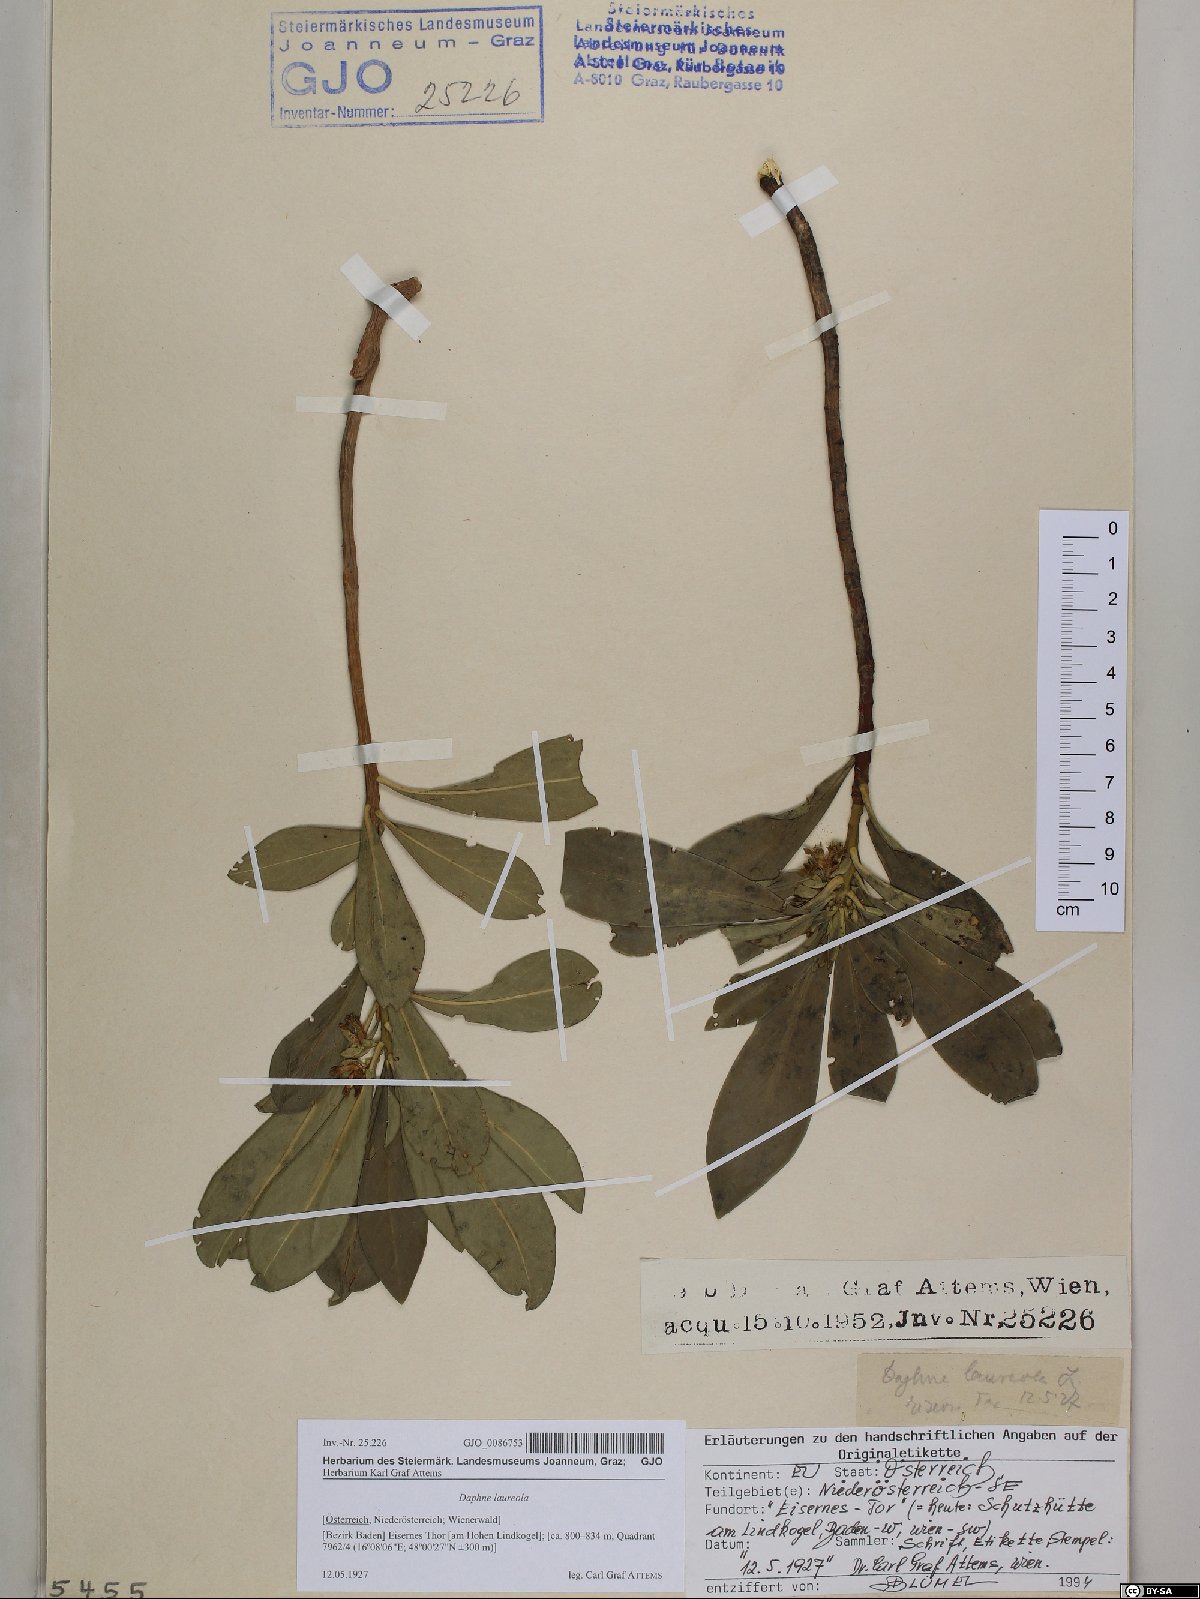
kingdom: Plantae
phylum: Tracheophyta
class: Magnoliopsida
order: Malvales
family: Thymelaeaceae
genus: Daphne
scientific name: Daphne laureola
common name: Spurge-laurel
